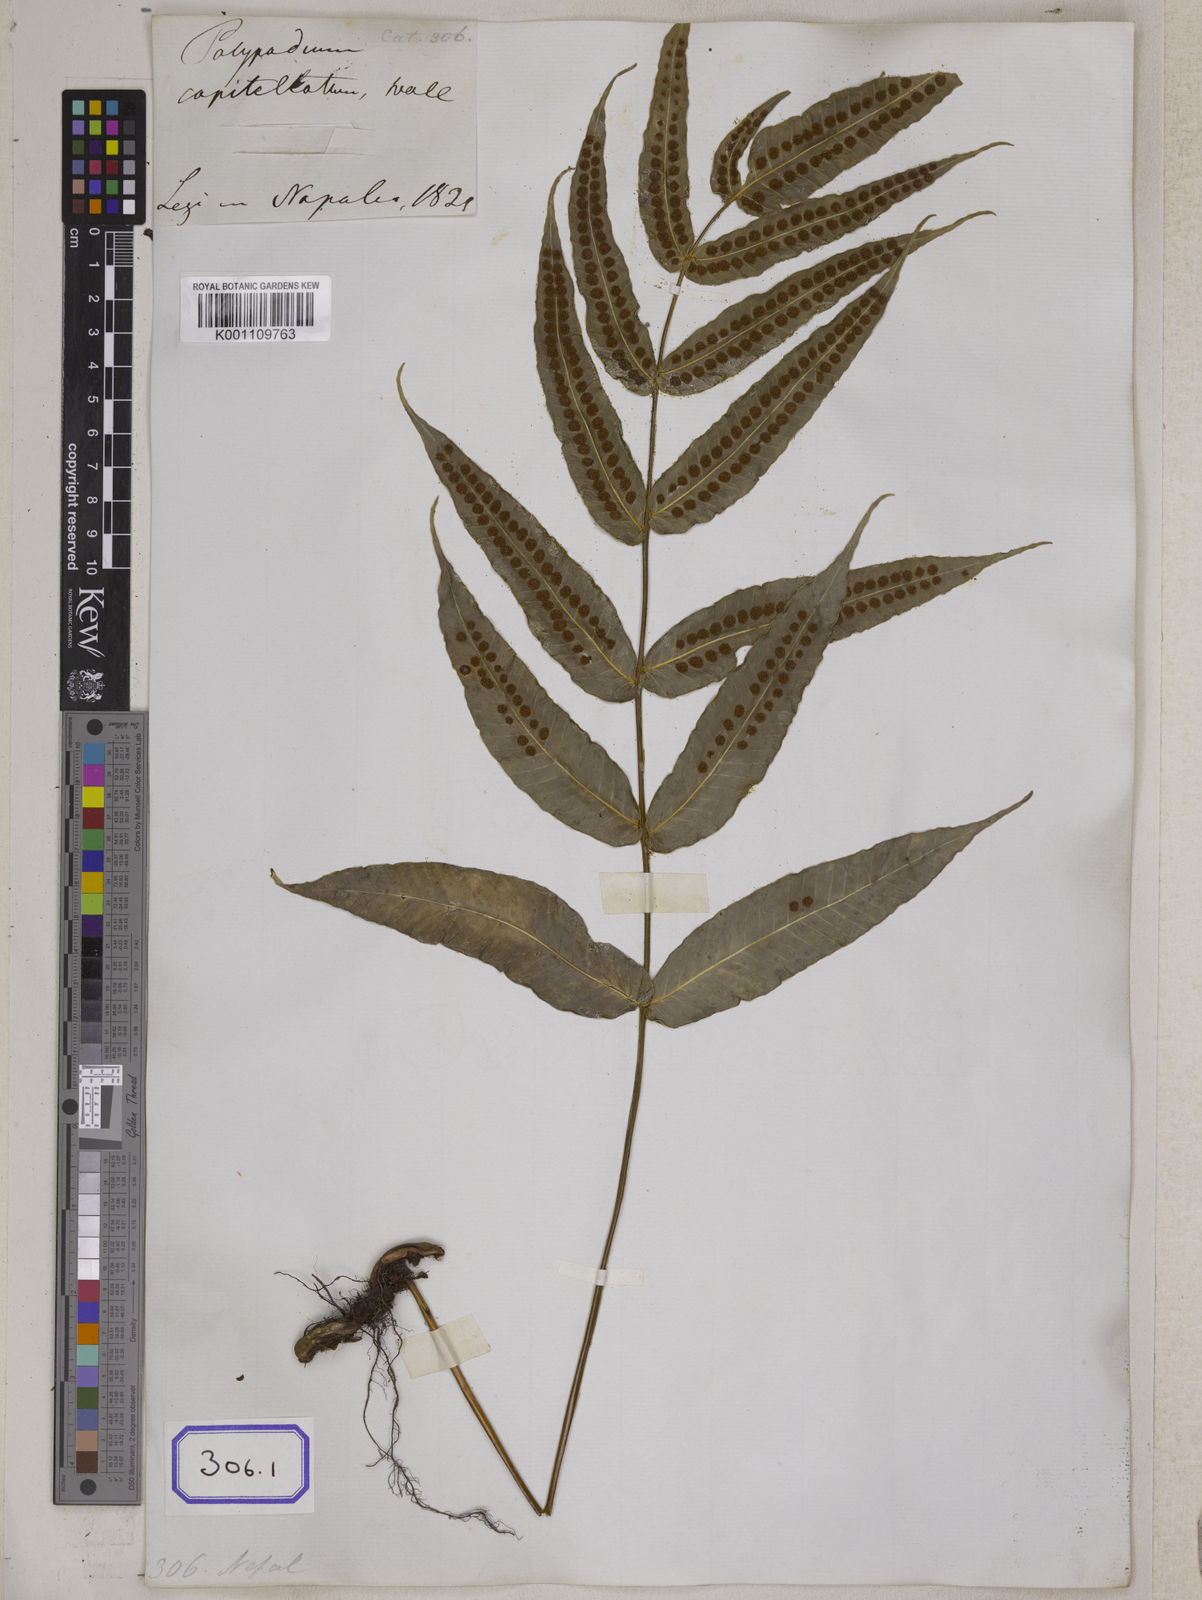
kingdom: Plantae
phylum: Tracheophyta
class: Polypodiopsida
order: Polypodiales
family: Polypodiaceae
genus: Selliguea
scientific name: Selliguea capitellata
